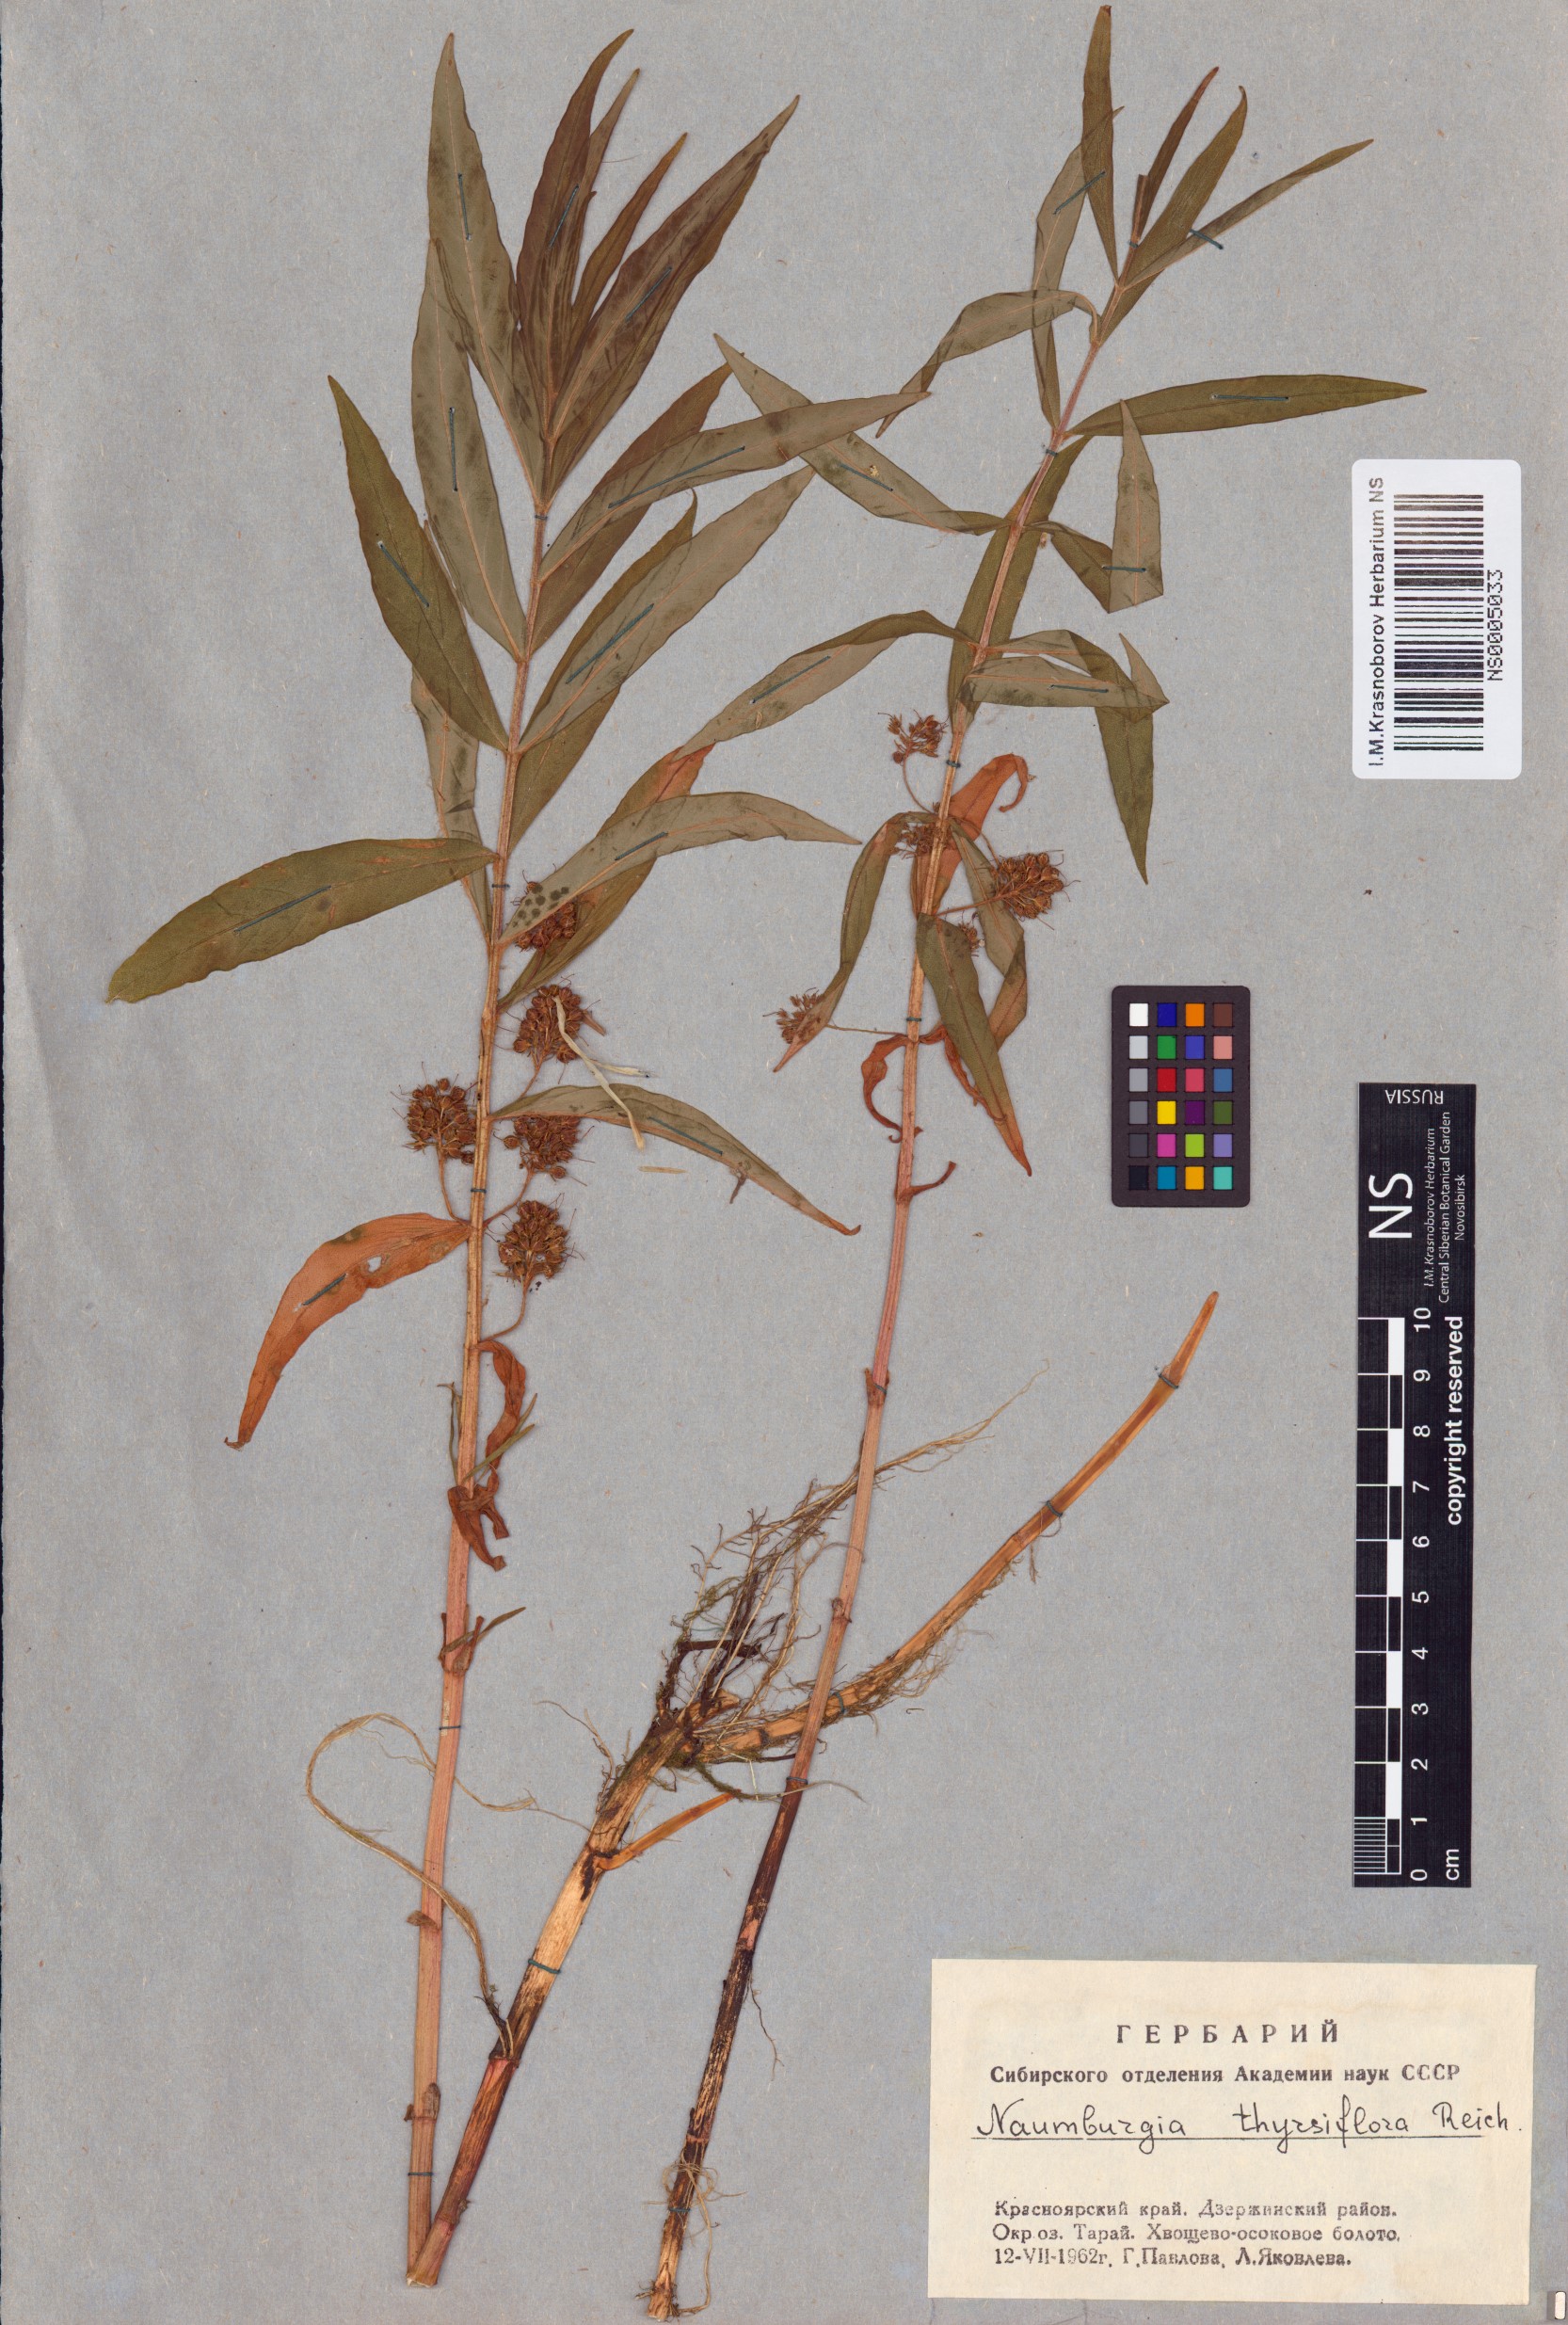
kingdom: Plantae
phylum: Tracheophyta
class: Magnoliopsida
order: Ericales
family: Primulaceae
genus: Lysimachia
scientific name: Lysimachia thyrsiflora
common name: Tufted loosestrife
